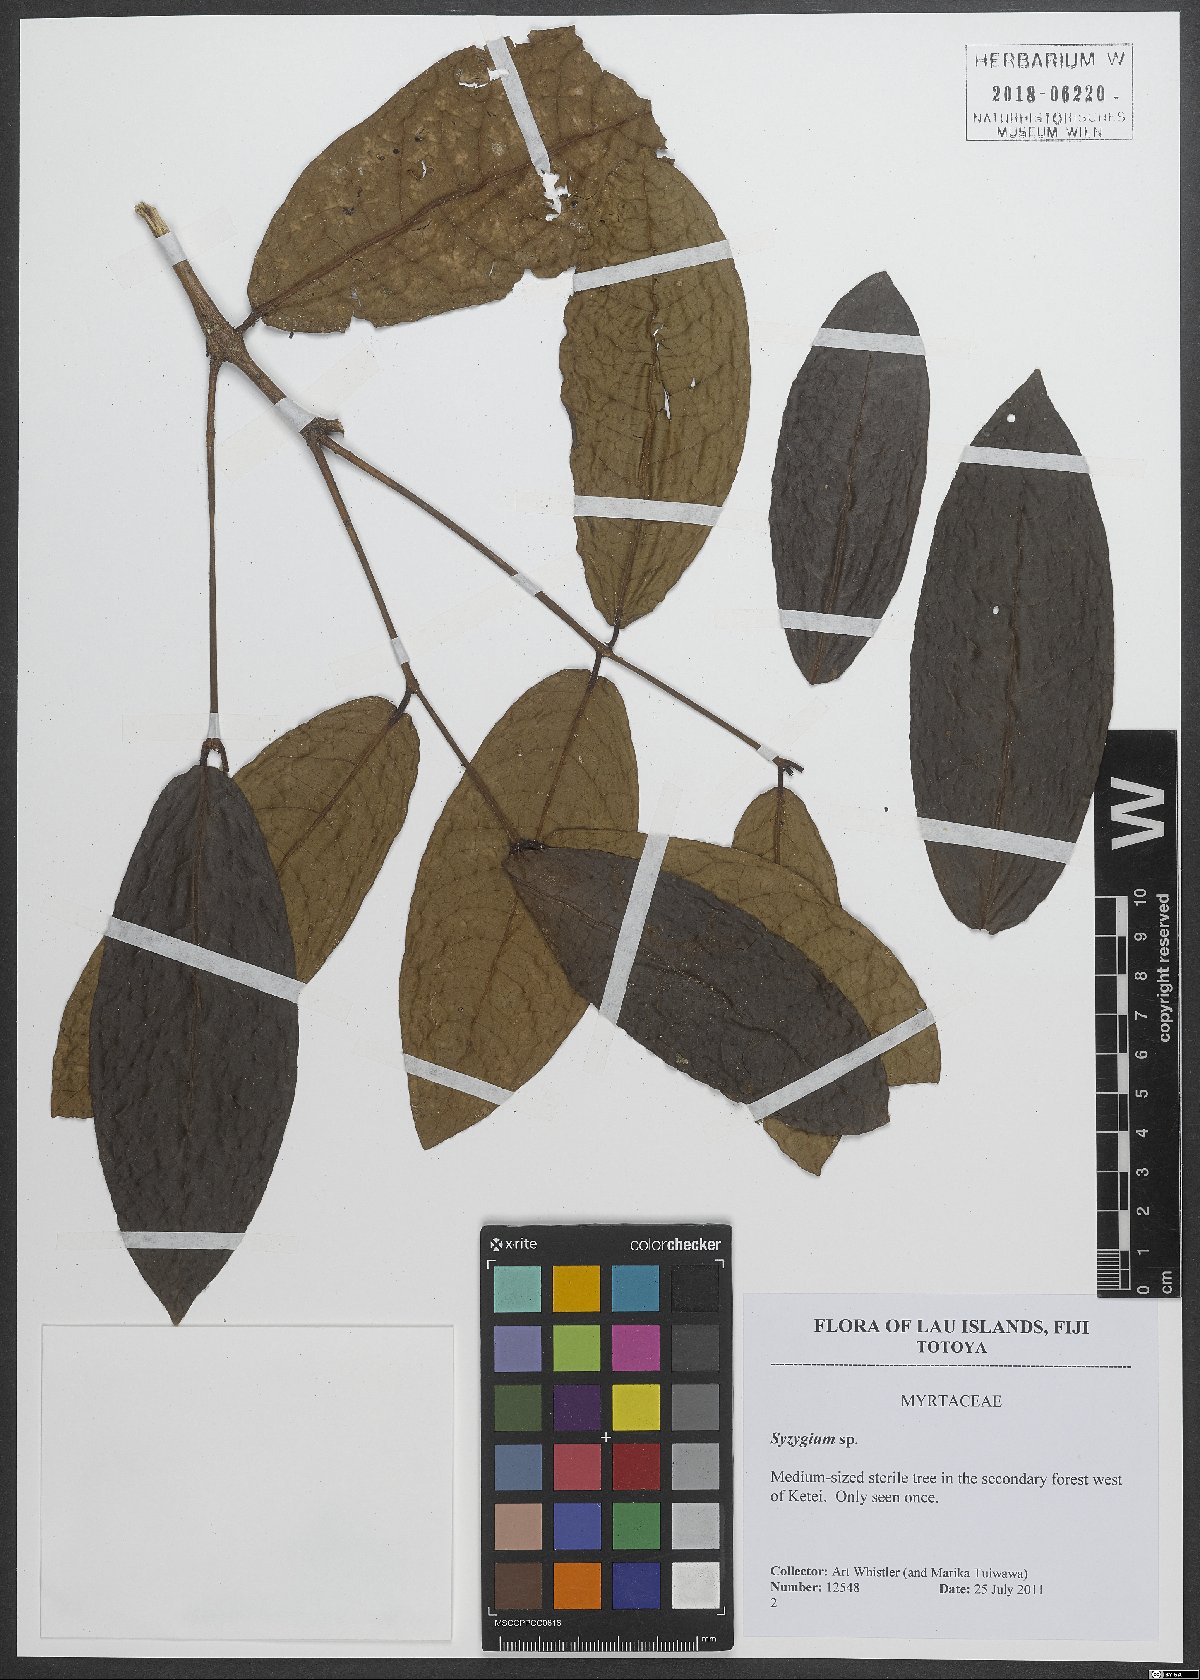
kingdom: Plantae
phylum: Tracheophyta
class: Magnoliopsida
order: Myrtales
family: Myrtaceae
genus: Syzygium
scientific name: Syzygium
